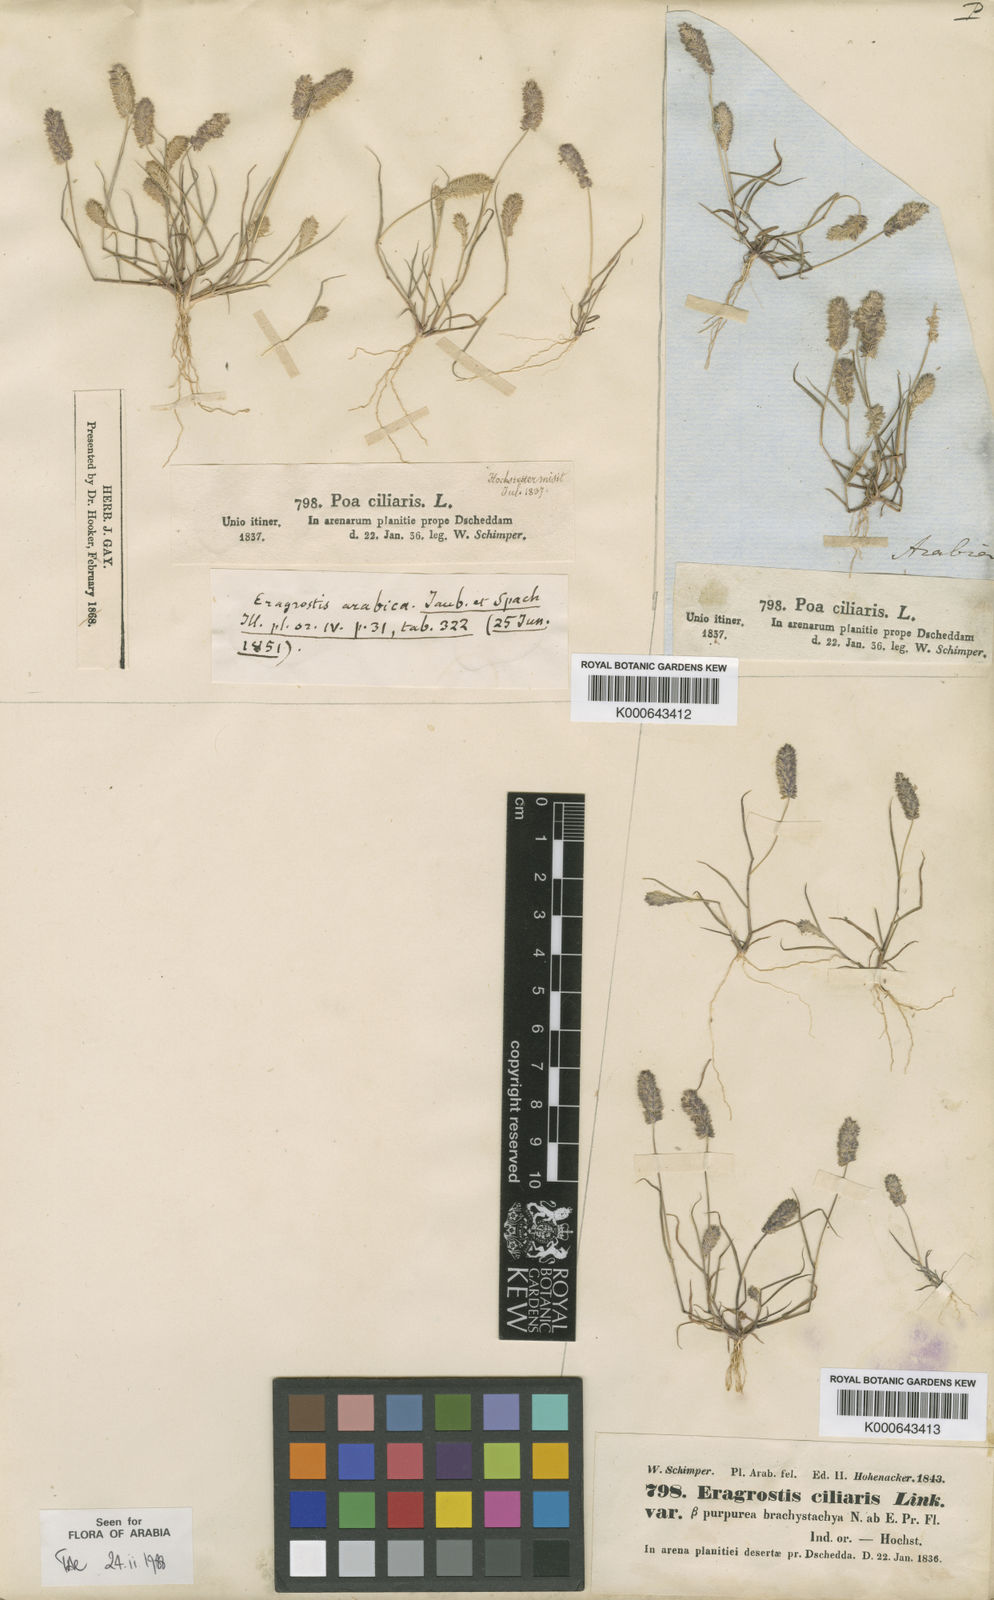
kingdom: Plantae
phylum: Tracheophyta
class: Liliopsida
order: Poales
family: Poaceae
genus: Eragrostis
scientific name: Eragrostis ciliaris
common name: Gophertail lovegrass
